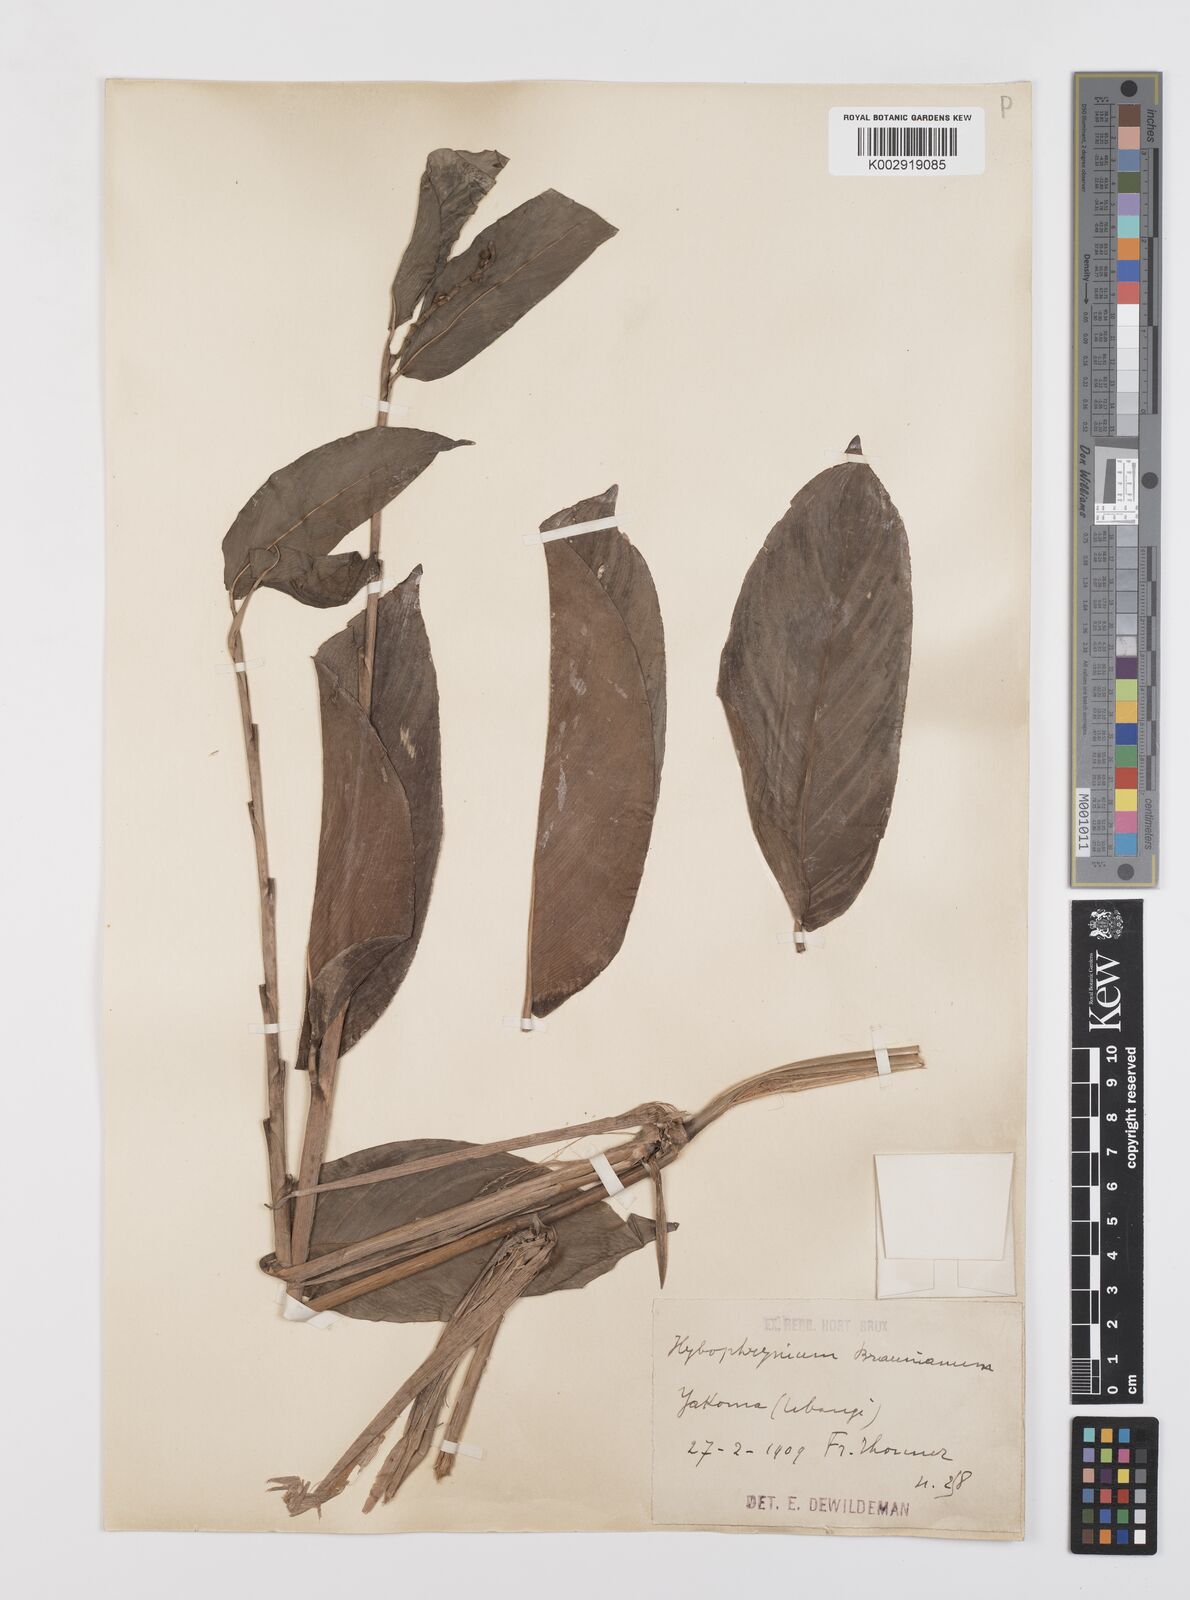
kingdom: Plantae
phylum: Tracheophyta
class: Liliopsida
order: Zingiberales
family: Marantaceae
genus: Trachyphrynium
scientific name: Trachyphrynium braunianum
